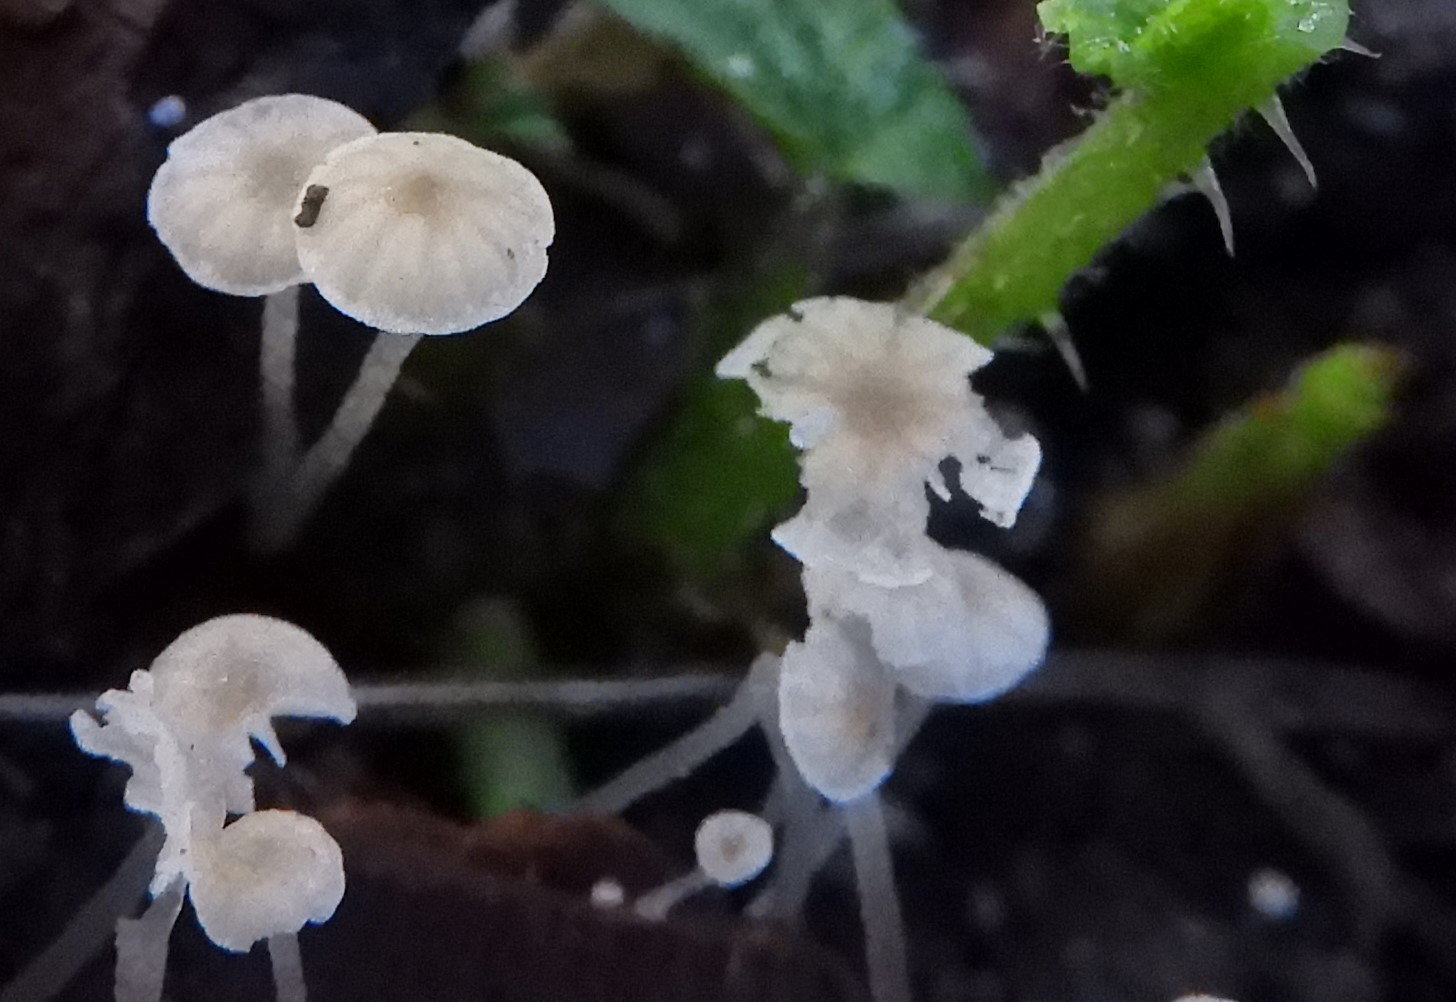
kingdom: Fungi
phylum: Basidiomycota
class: Agaricomycetes
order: Agaricales
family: Porotheleaceae
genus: Phloeomana
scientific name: Phloeomana speirea
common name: kvist-huesvamp
